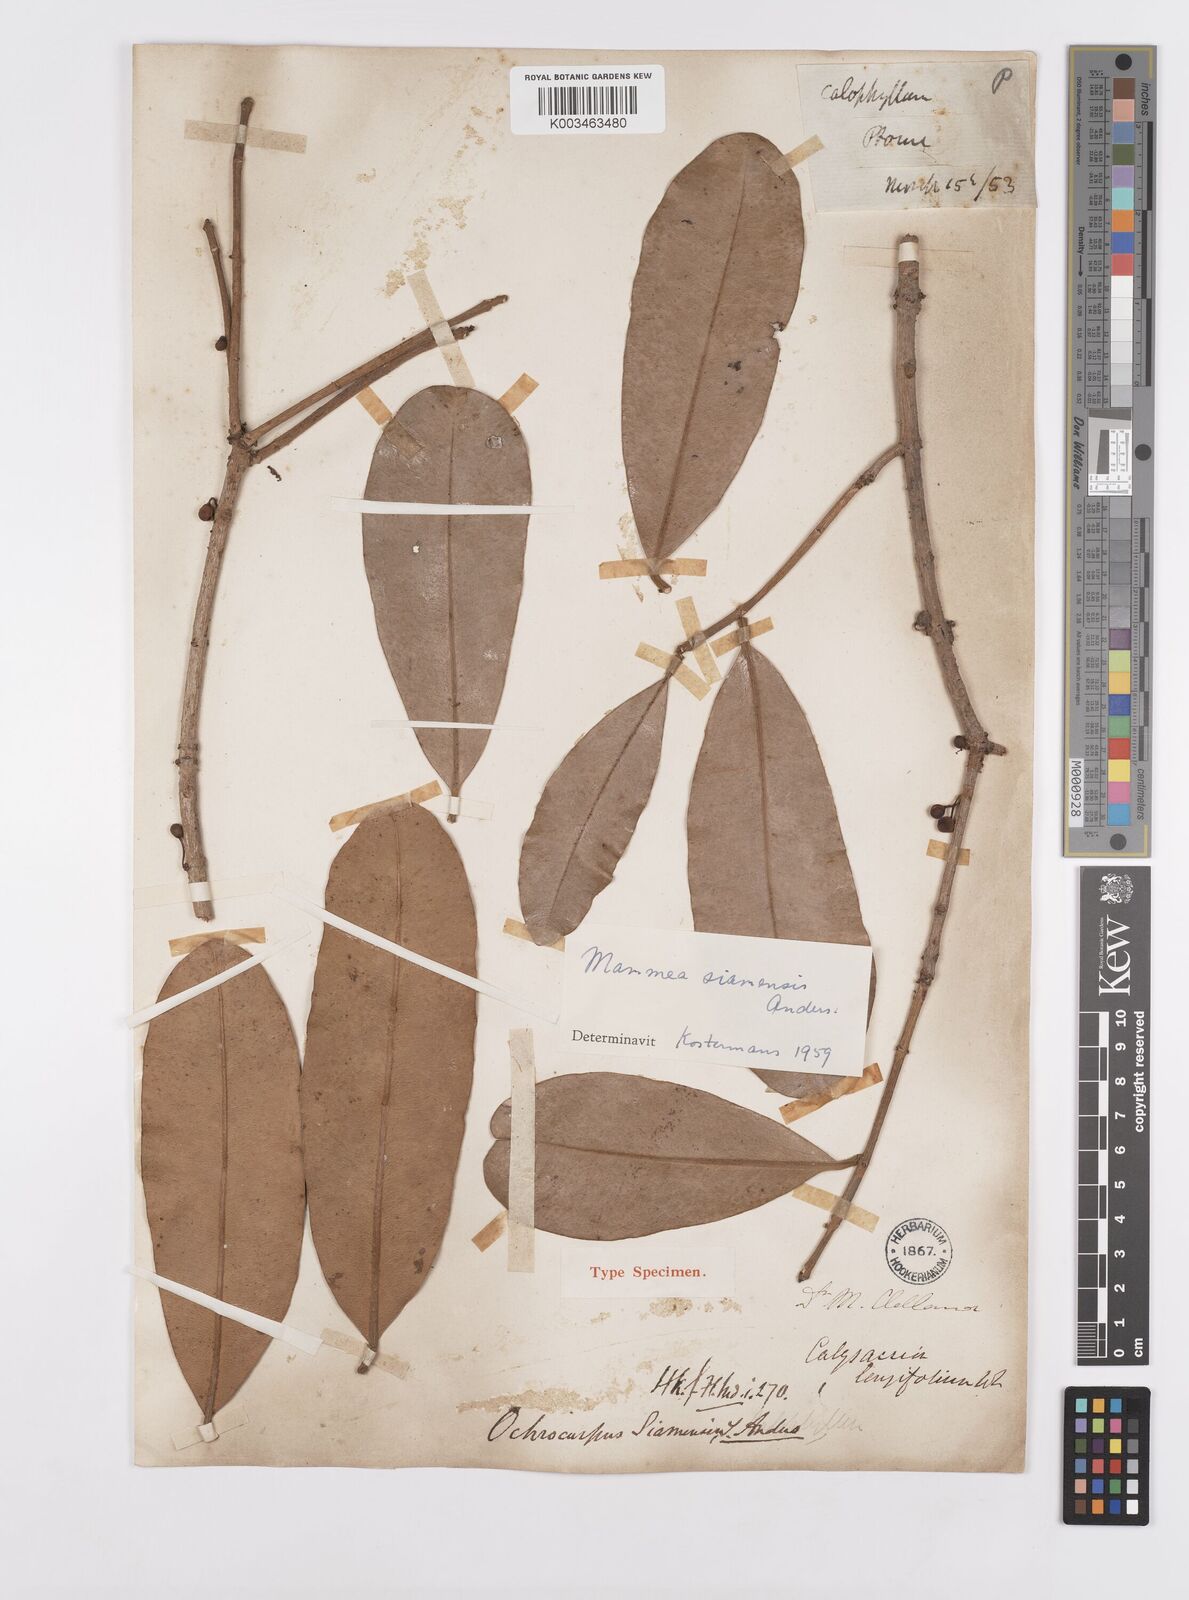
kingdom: Plantae
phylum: Tracheophyta
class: Magnoliopsida
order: Malpighiales
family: Calophyllaceae
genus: Mammea
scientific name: Mammea siamensis
